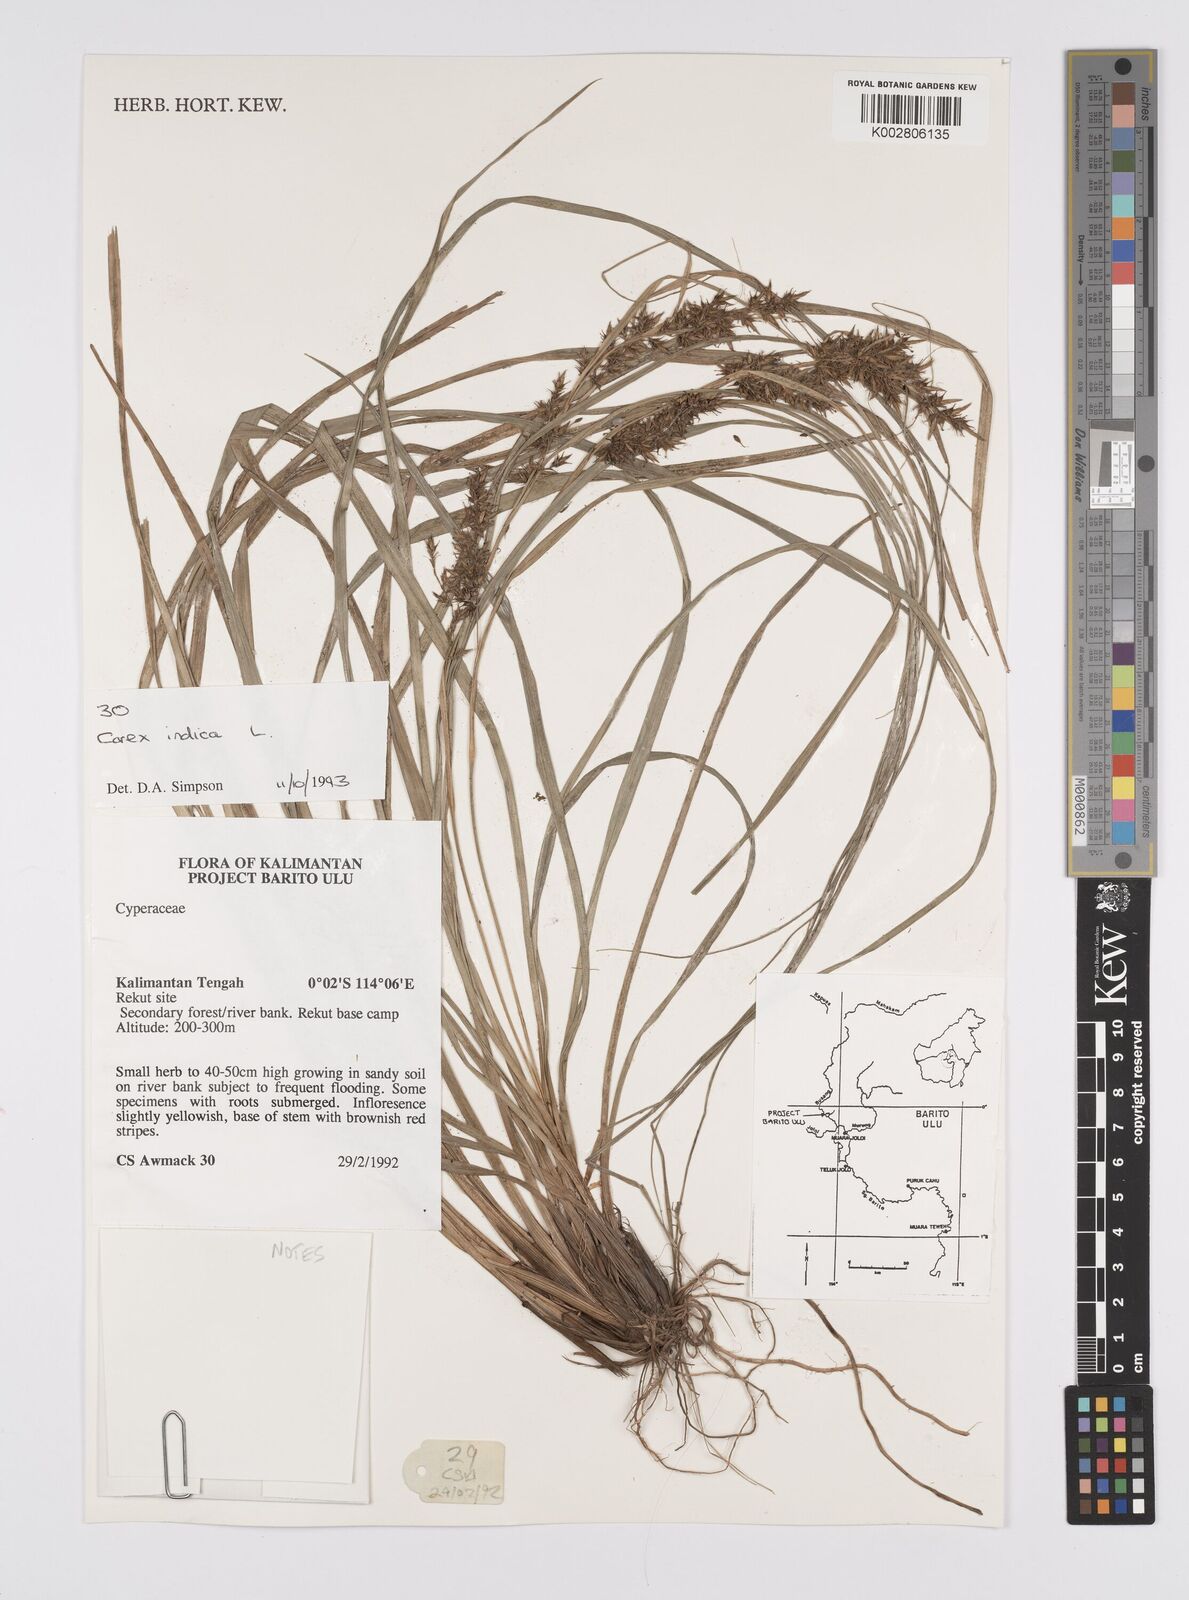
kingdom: Plantae
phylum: Tracheophyta
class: Liliopsida
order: Poales
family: Cyperaceae
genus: Carex
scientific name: Carex indica
